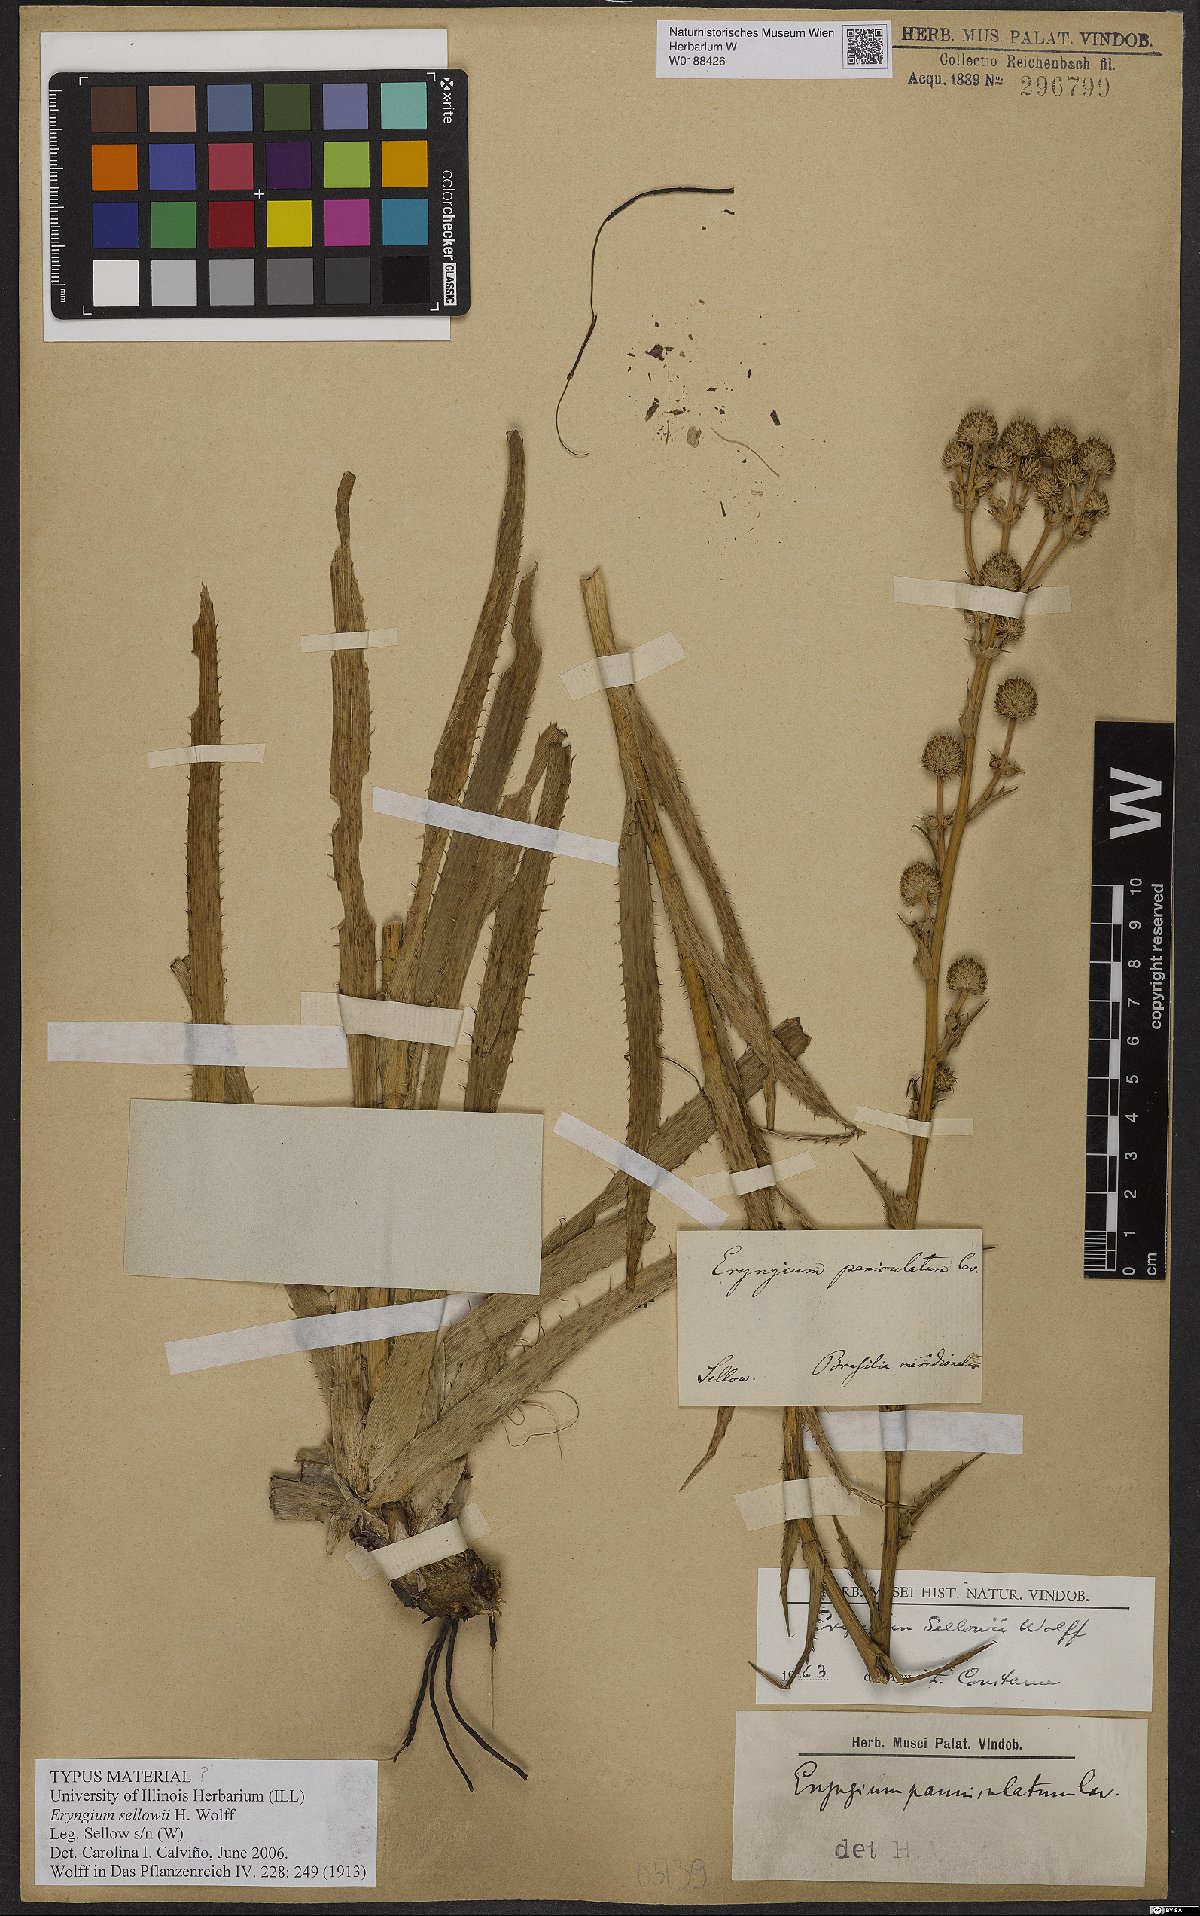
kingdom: Plantae
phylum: Tracheophyta
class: Magnoliopsida
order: Apiales
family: Apiaceae
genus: Eryngium
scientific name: Eryngium sellowii
